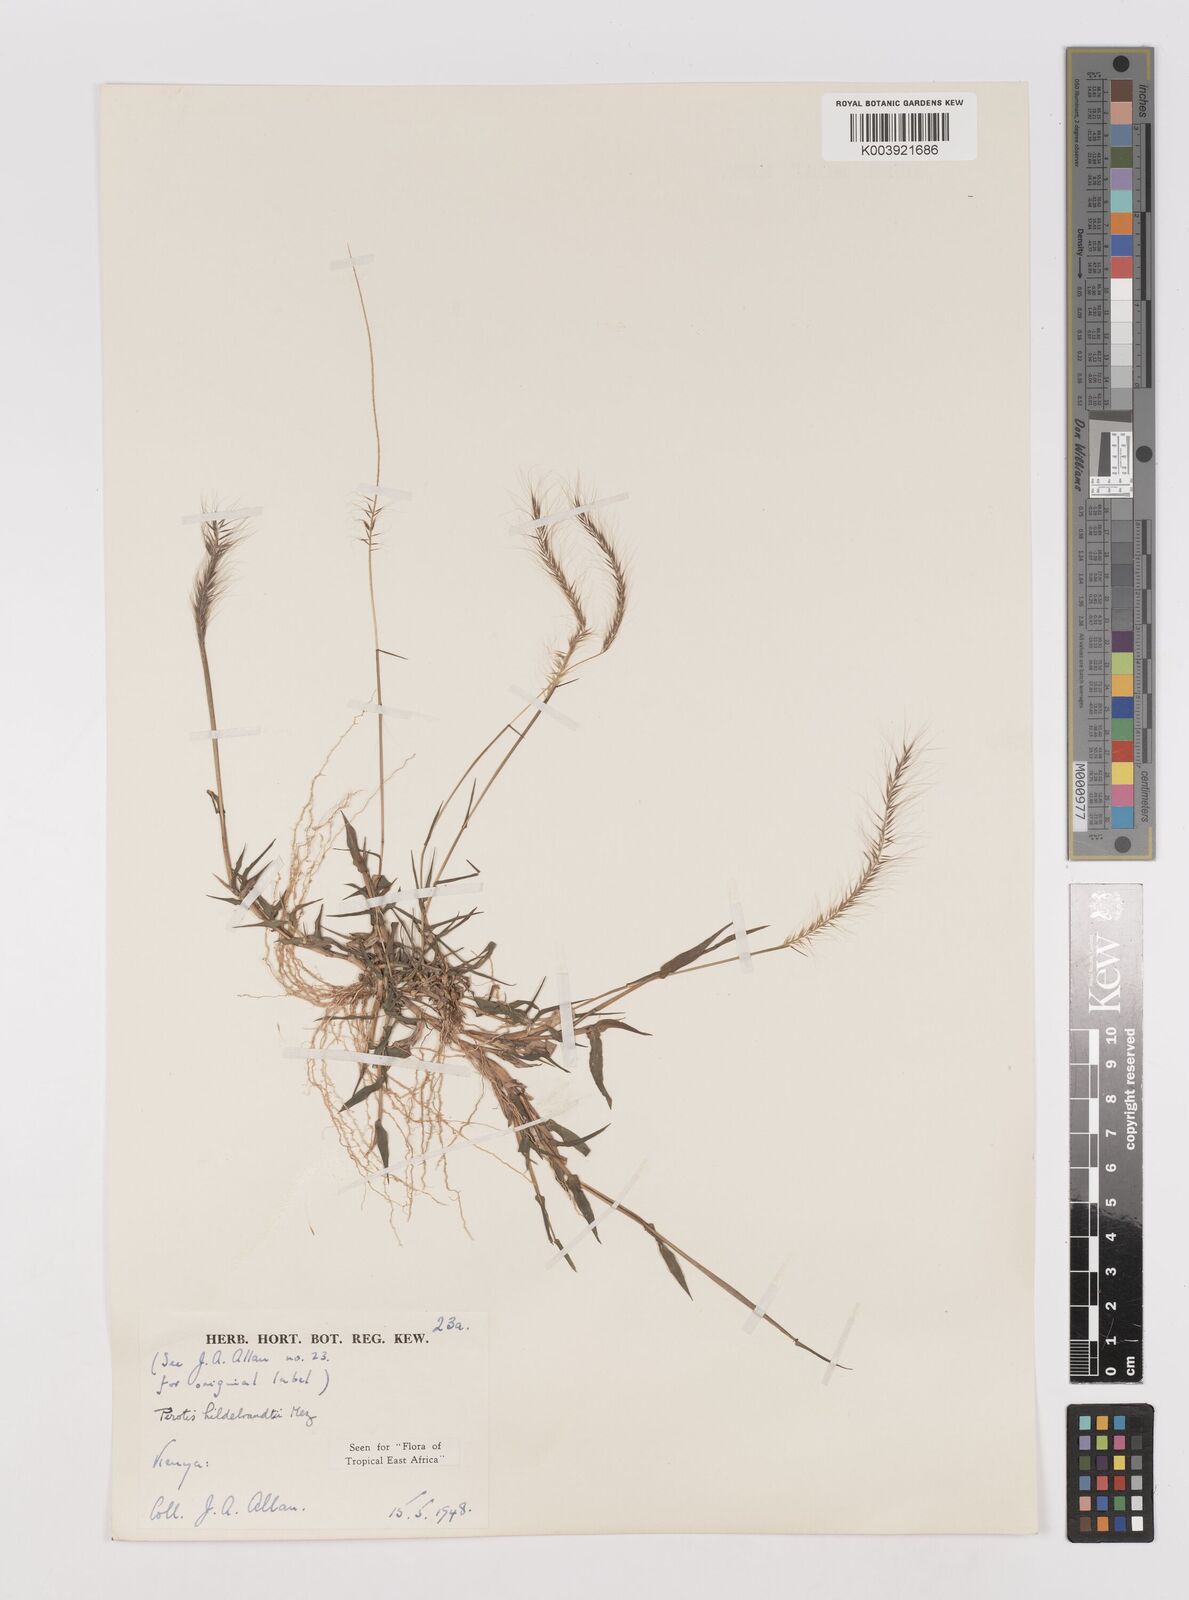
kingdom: Plantae
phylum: Tracheophyta
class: Liliopsida
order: Poales
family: Poaceae
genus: Perotis
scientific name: Perotis hildebrandtii
